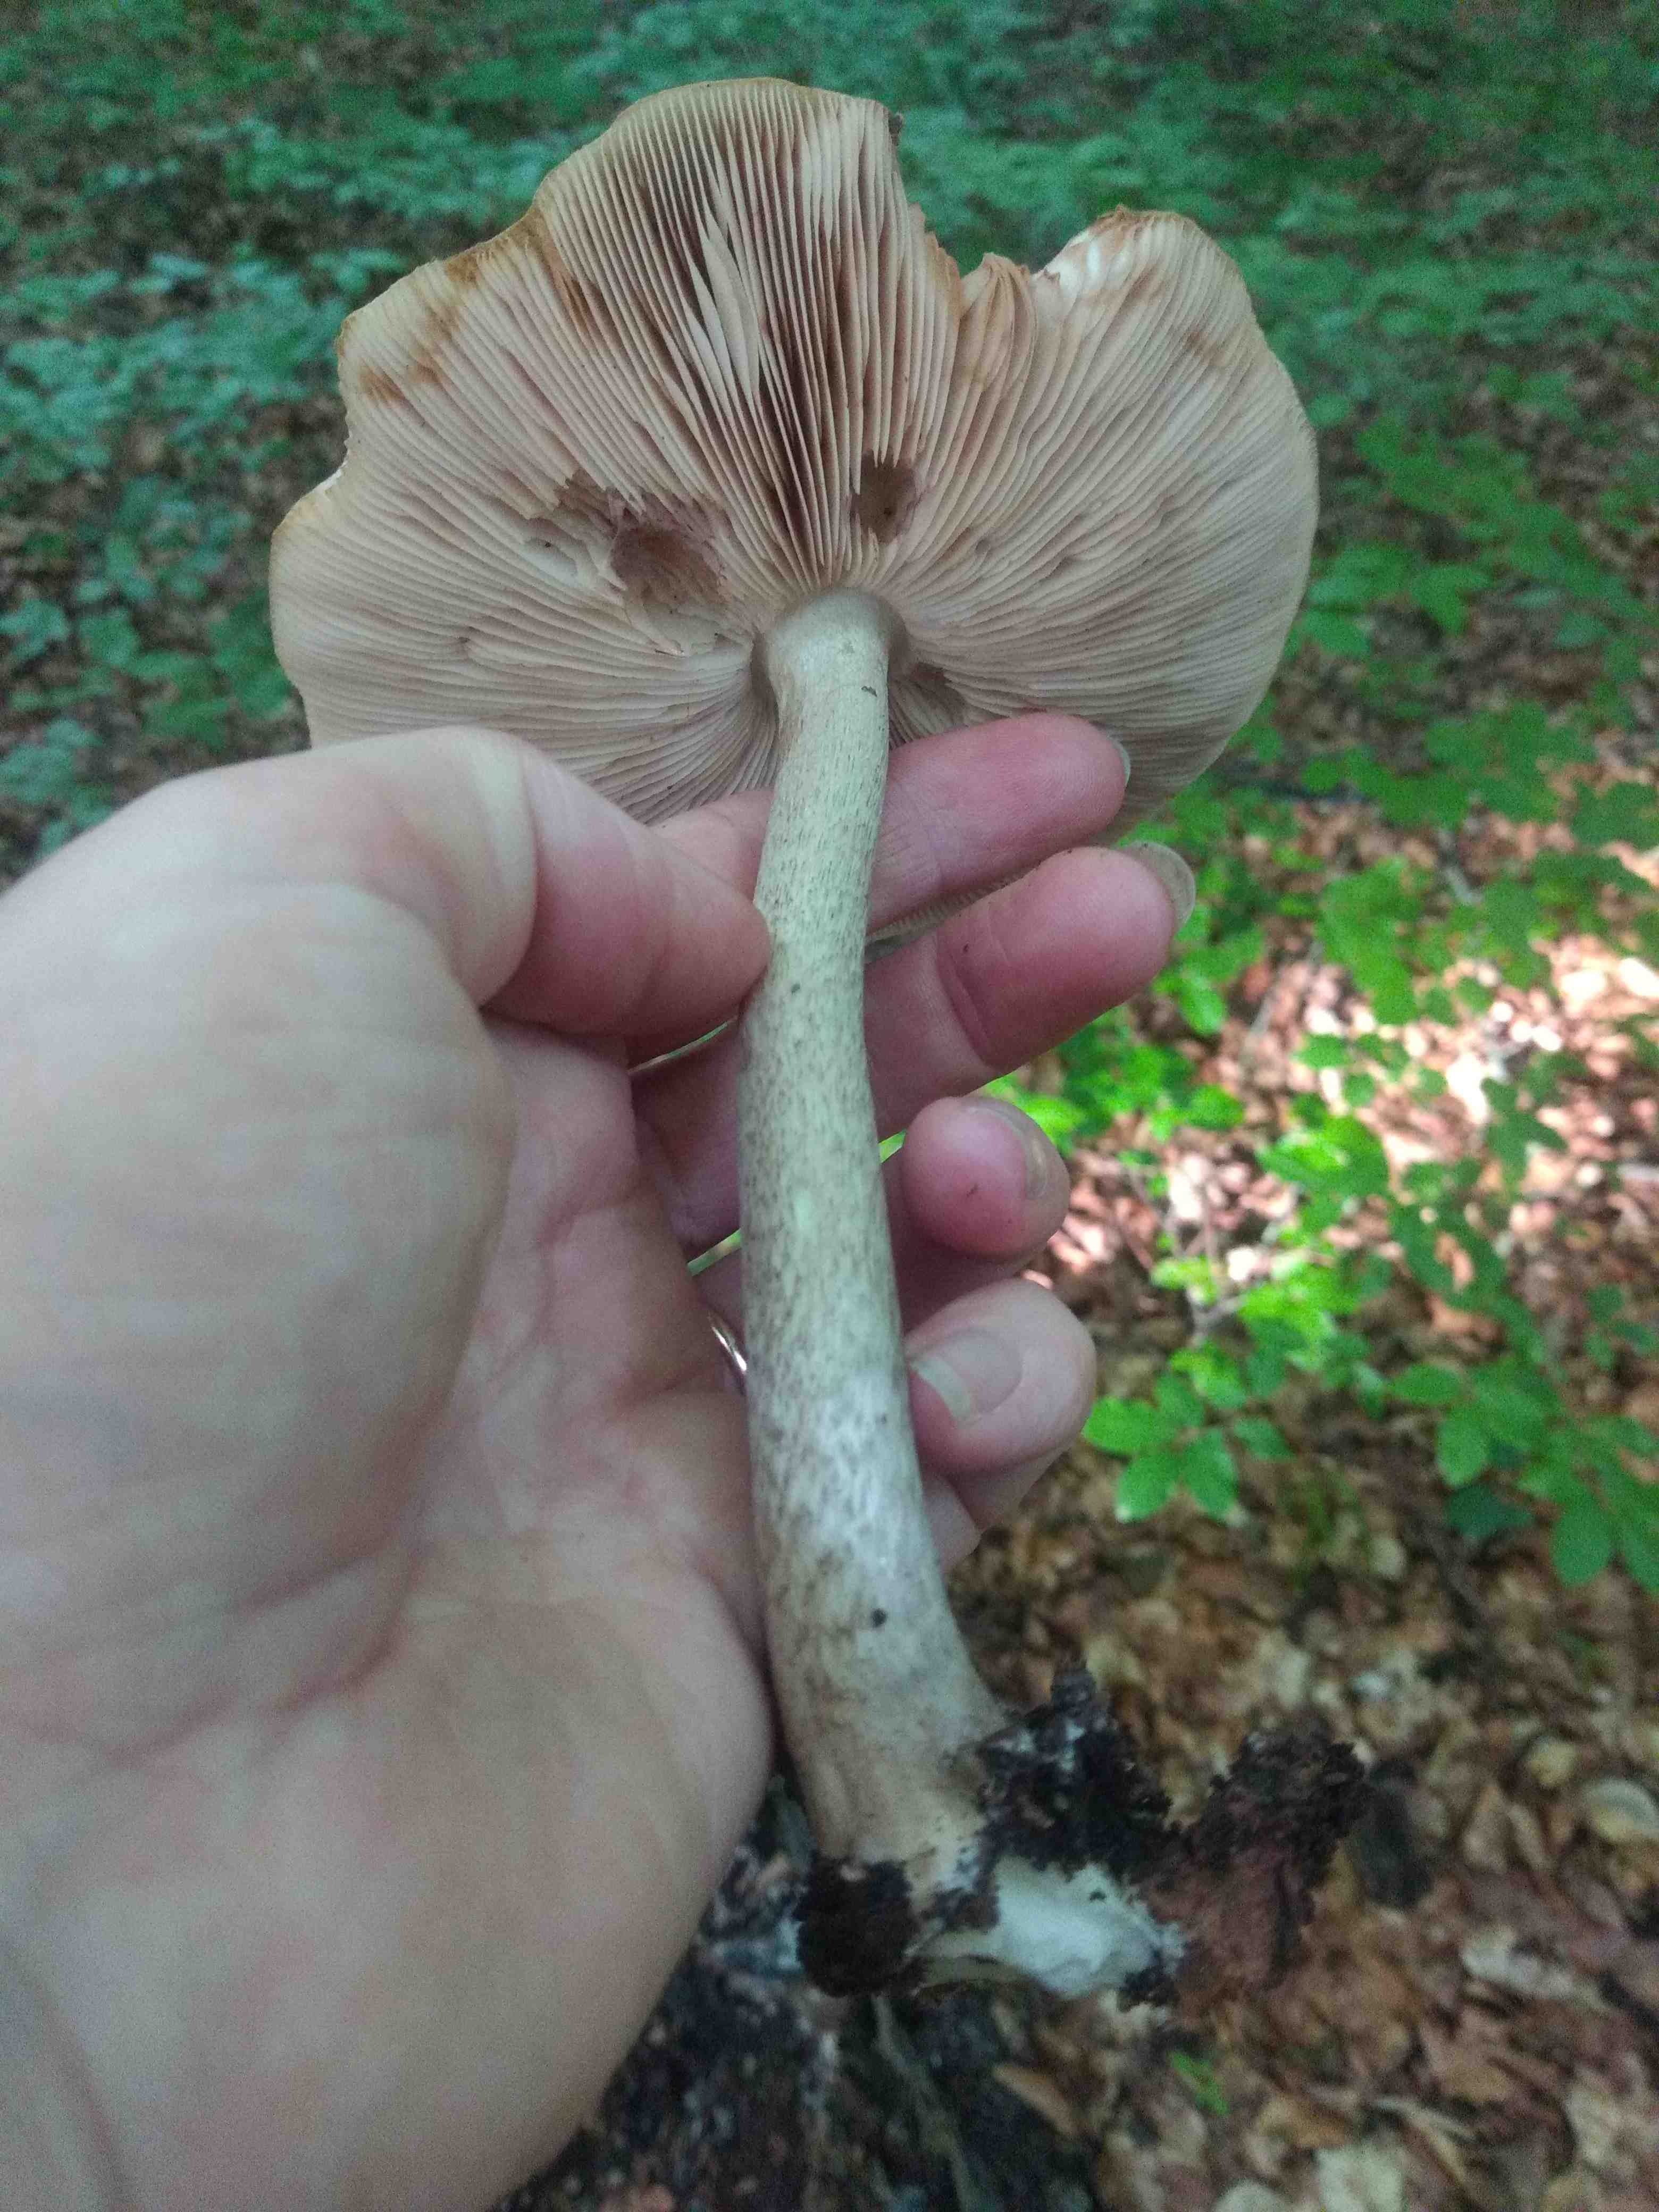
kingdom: Fungi
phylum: Basidiomycota
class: Agaricomycetes
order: Agaricales
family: Pluteaceae
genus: Pluteus
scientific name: Pluteus cervinus
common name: sodfarvet skærmhat
